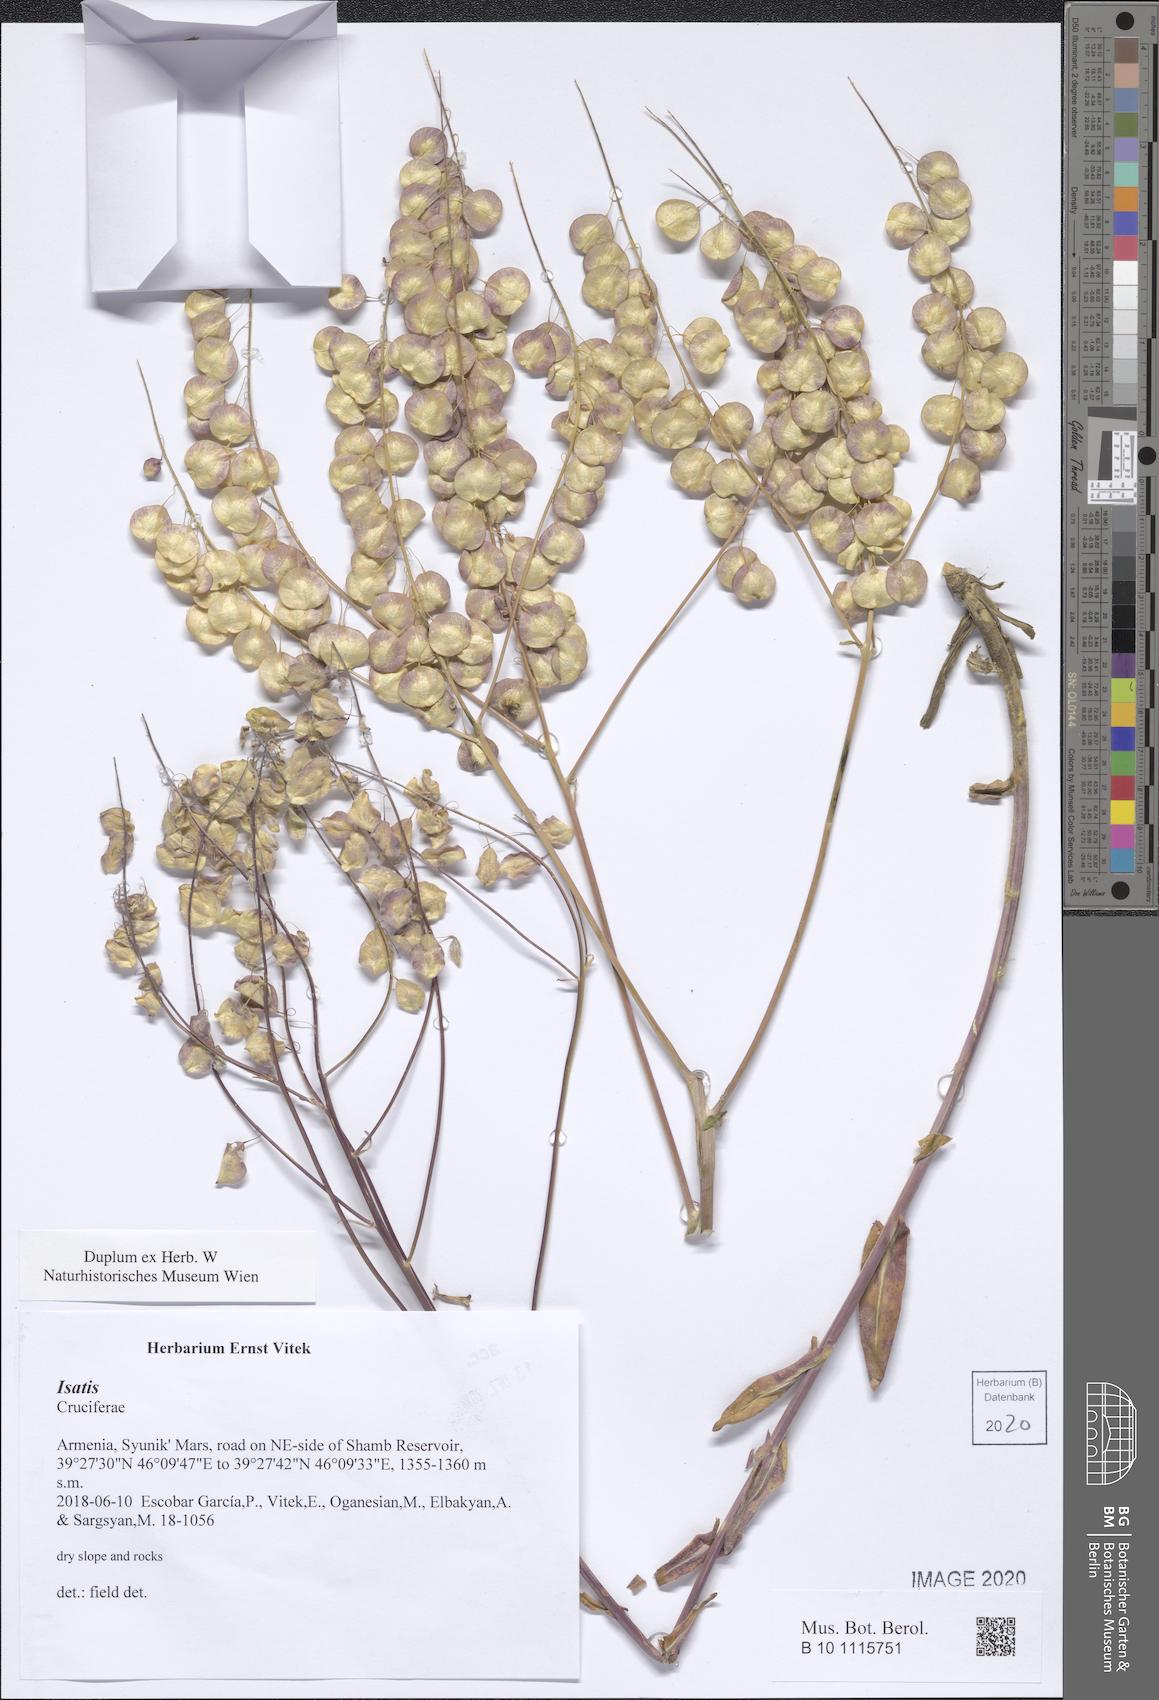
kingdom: Plantae
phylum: Tracheophyta
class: Magnoliopsida
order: Brassicales
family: Brassicaceae
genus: Isatis
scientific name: Isatis
